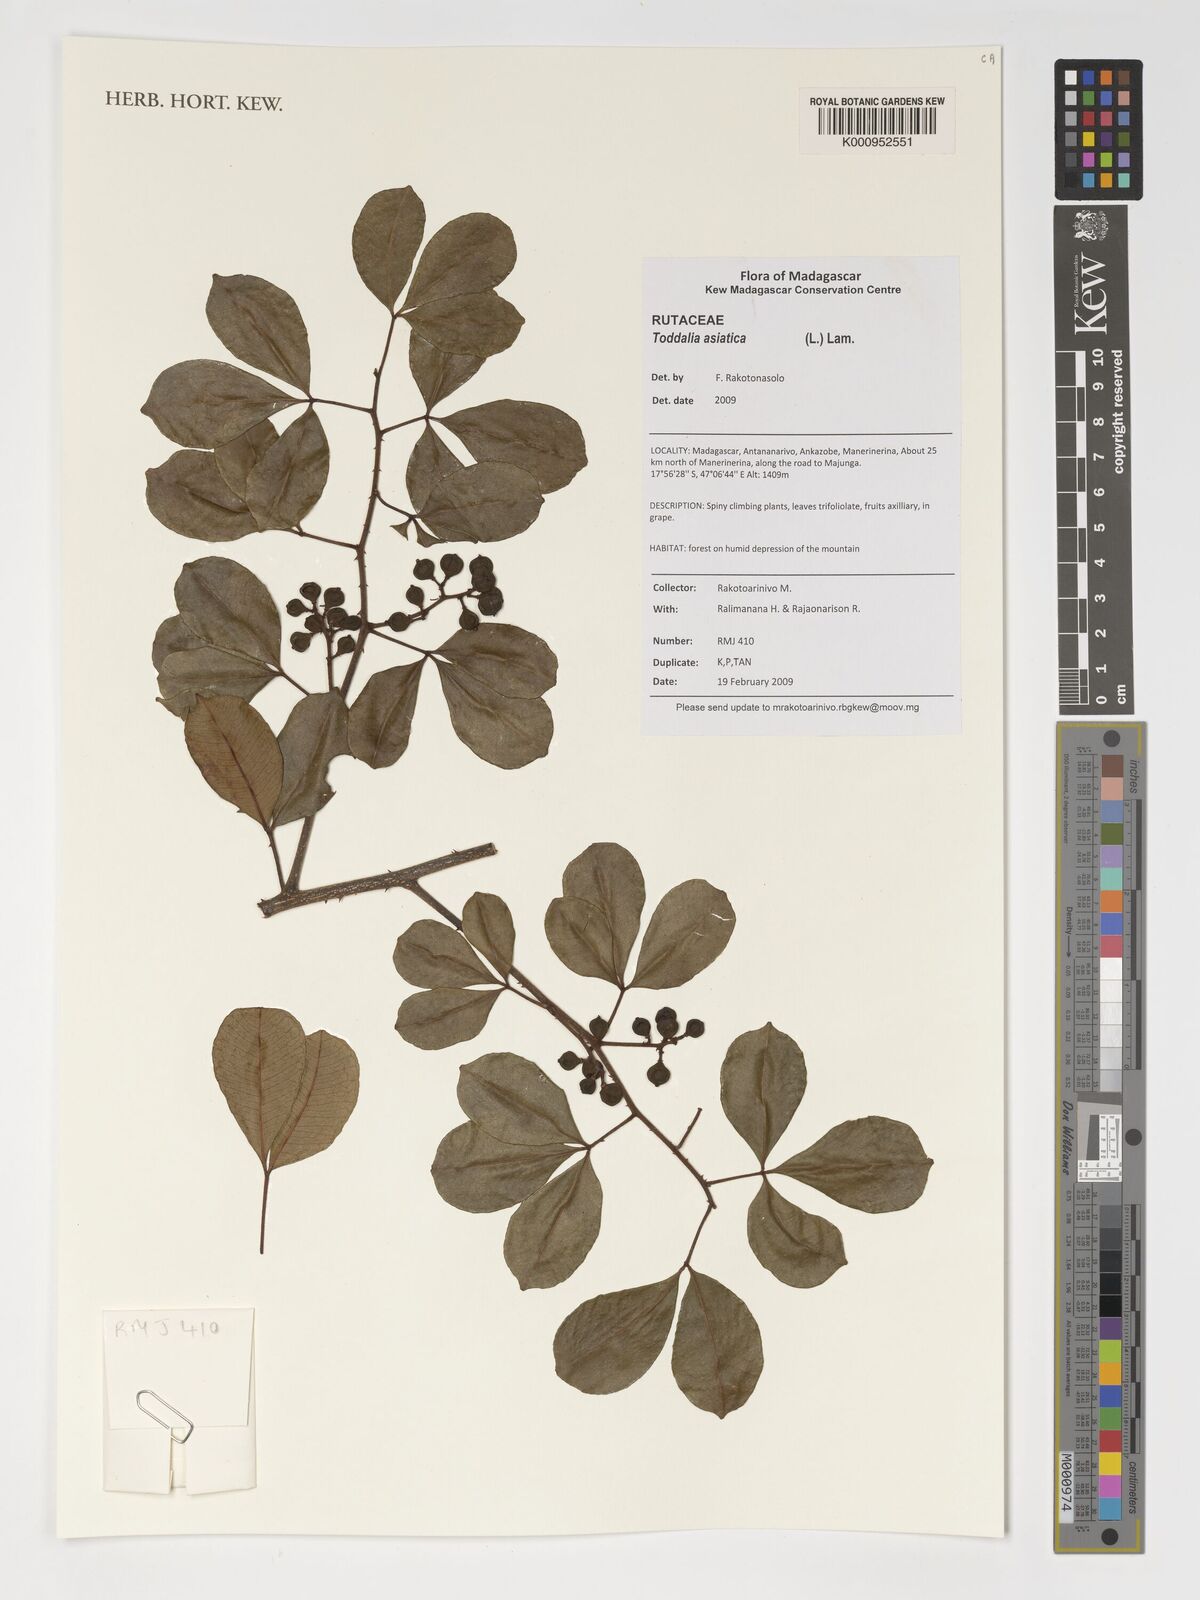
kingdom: Plantae
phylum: Tracheophyta
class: Magnoliopsida
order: Sapindales
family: Rutaceae
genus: Zanthoxylum
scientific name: Zanthoxylum asiaticum
